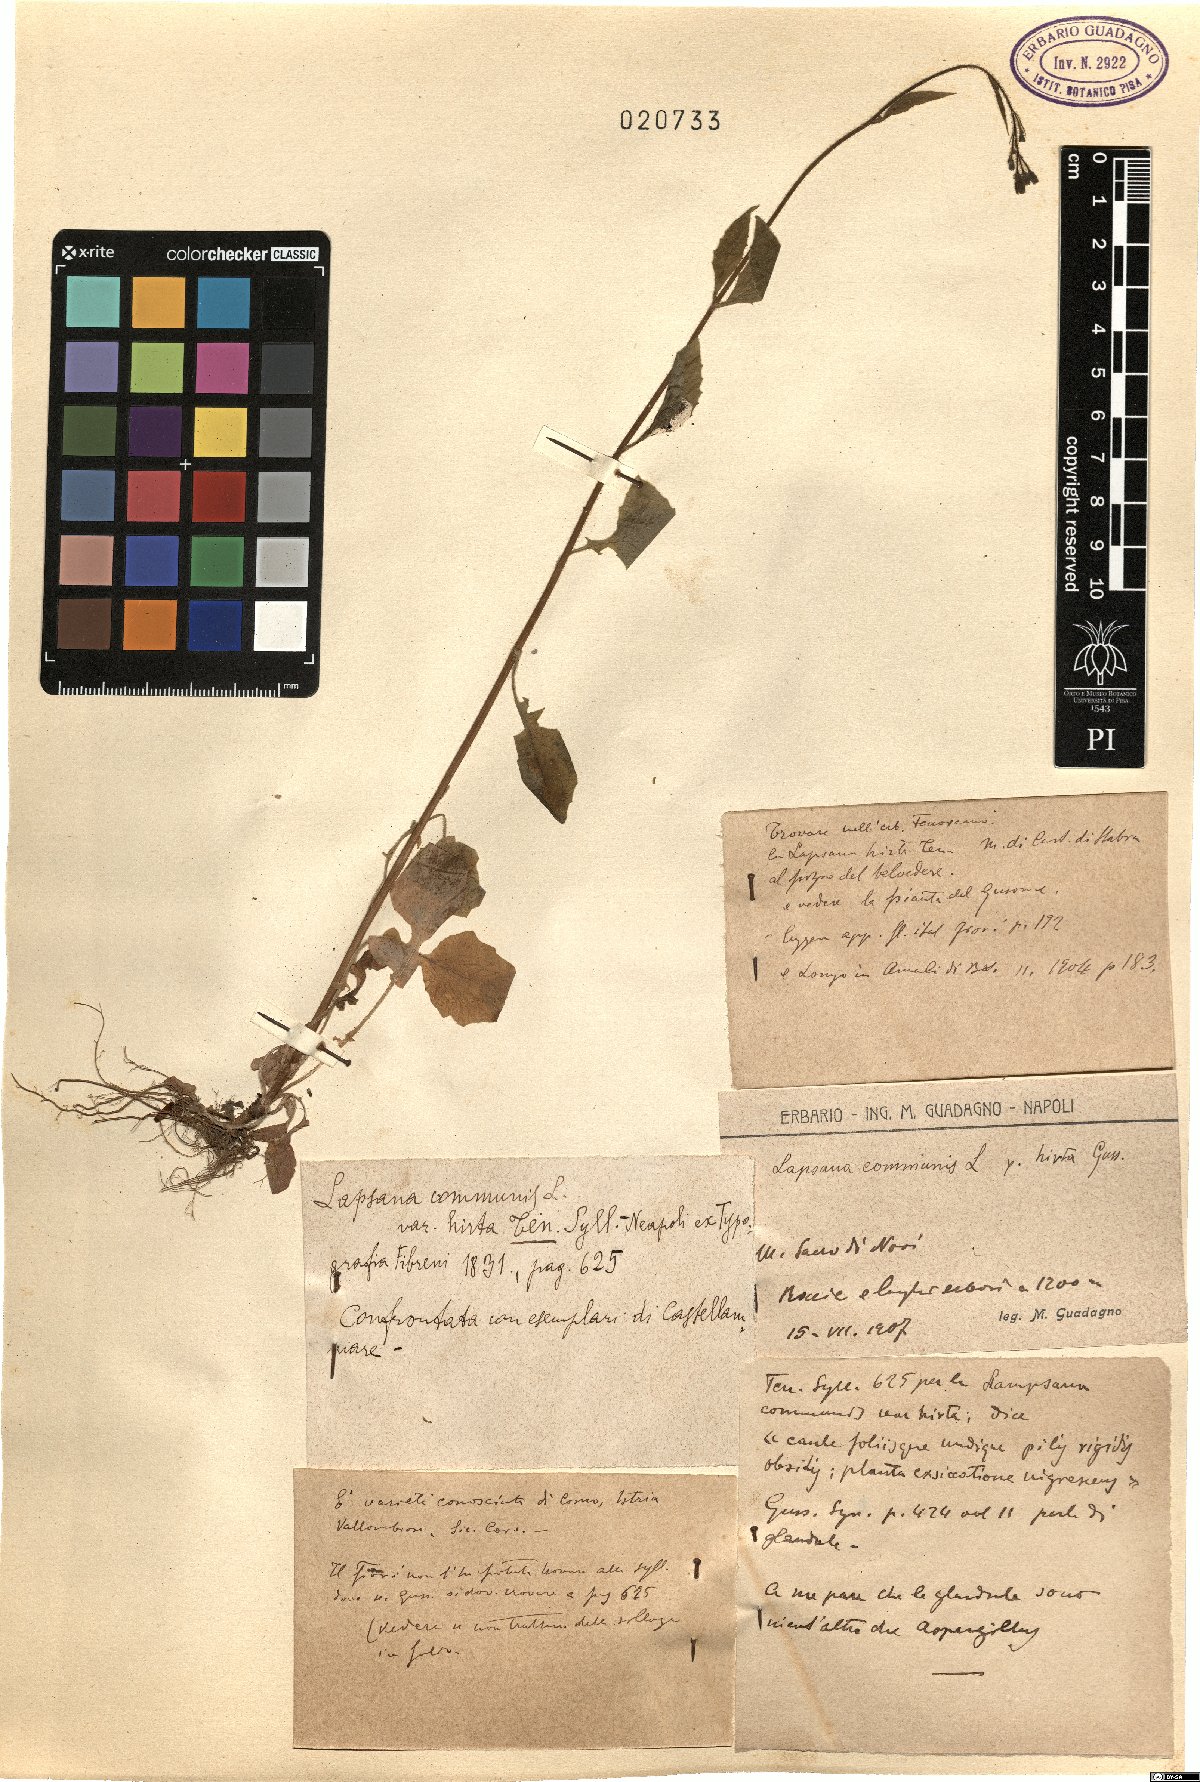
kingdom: Plantae
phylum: Tracheophyta
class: Magnoliopsida
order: Asterales
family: Asteraceae
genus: Lapsana
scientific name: Lapsana communis
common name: Nipplewort
